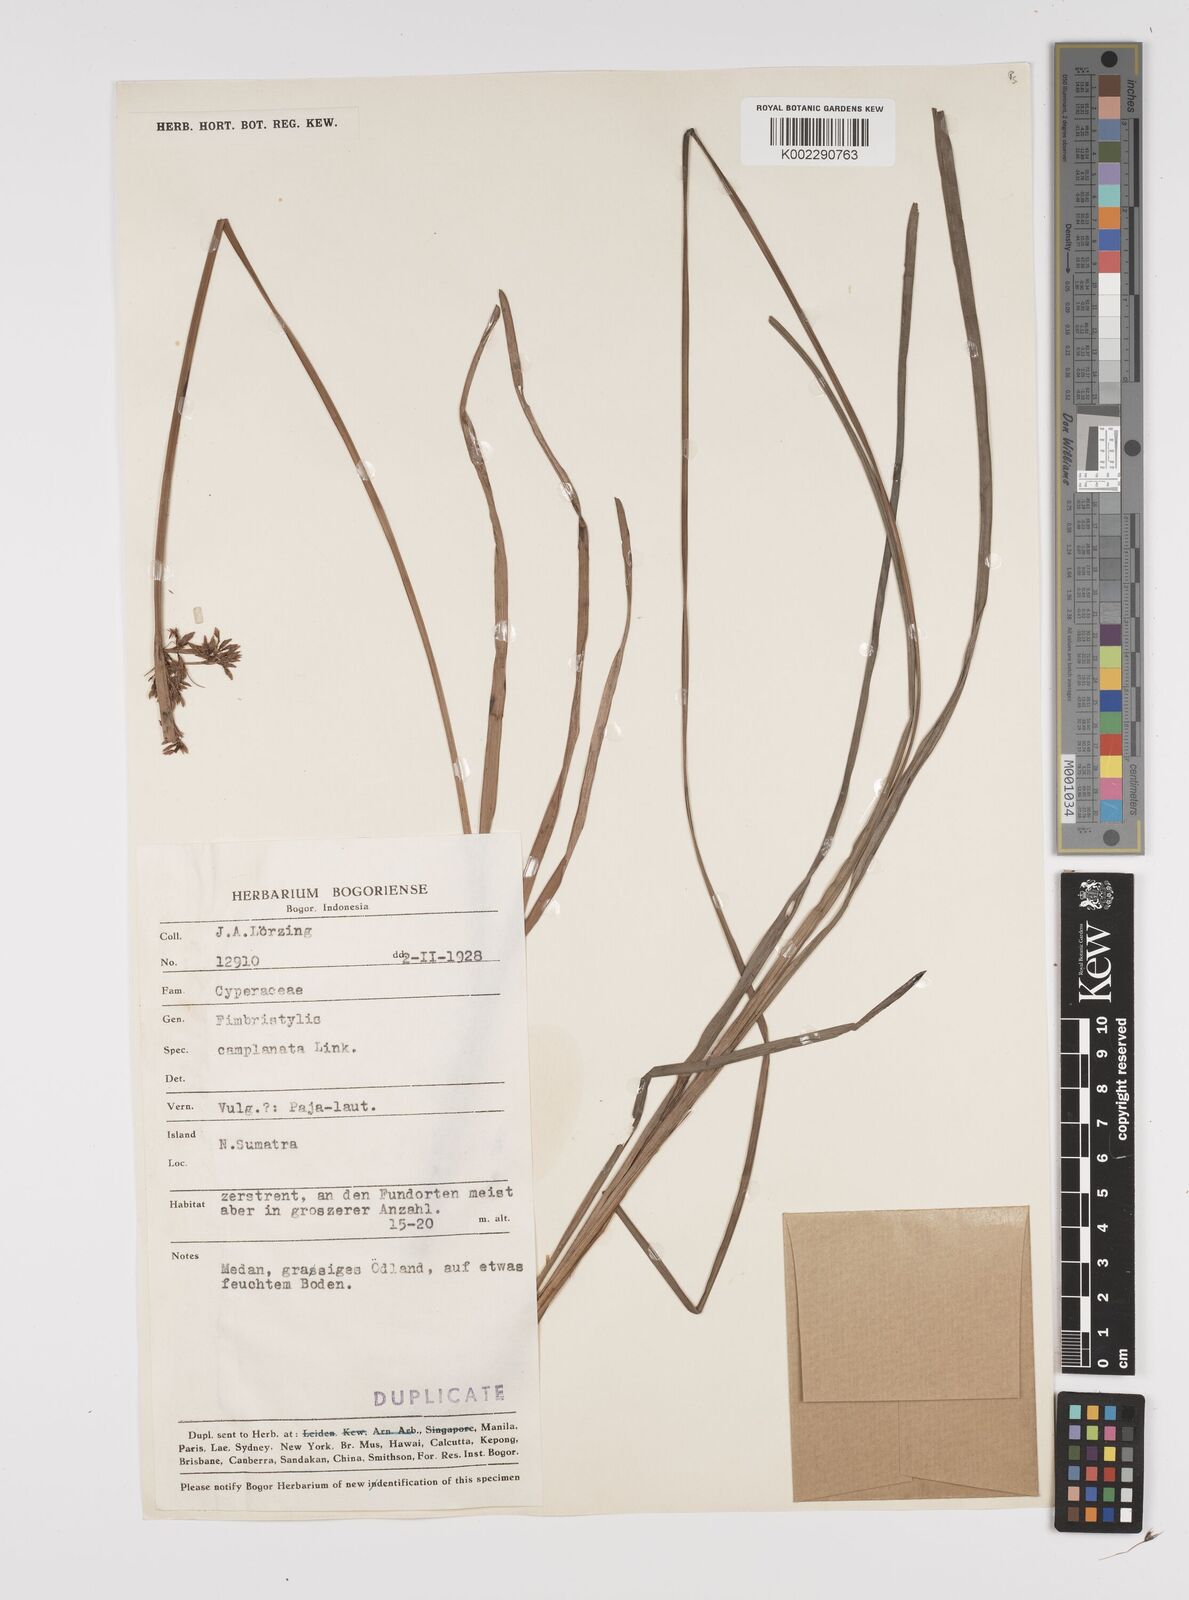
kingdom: Plantae
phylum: Tracheophyta
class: Liliopsida
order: Poales
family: Cyperaceae
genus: Fimbristylis
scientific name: Fimbristylis complanata
